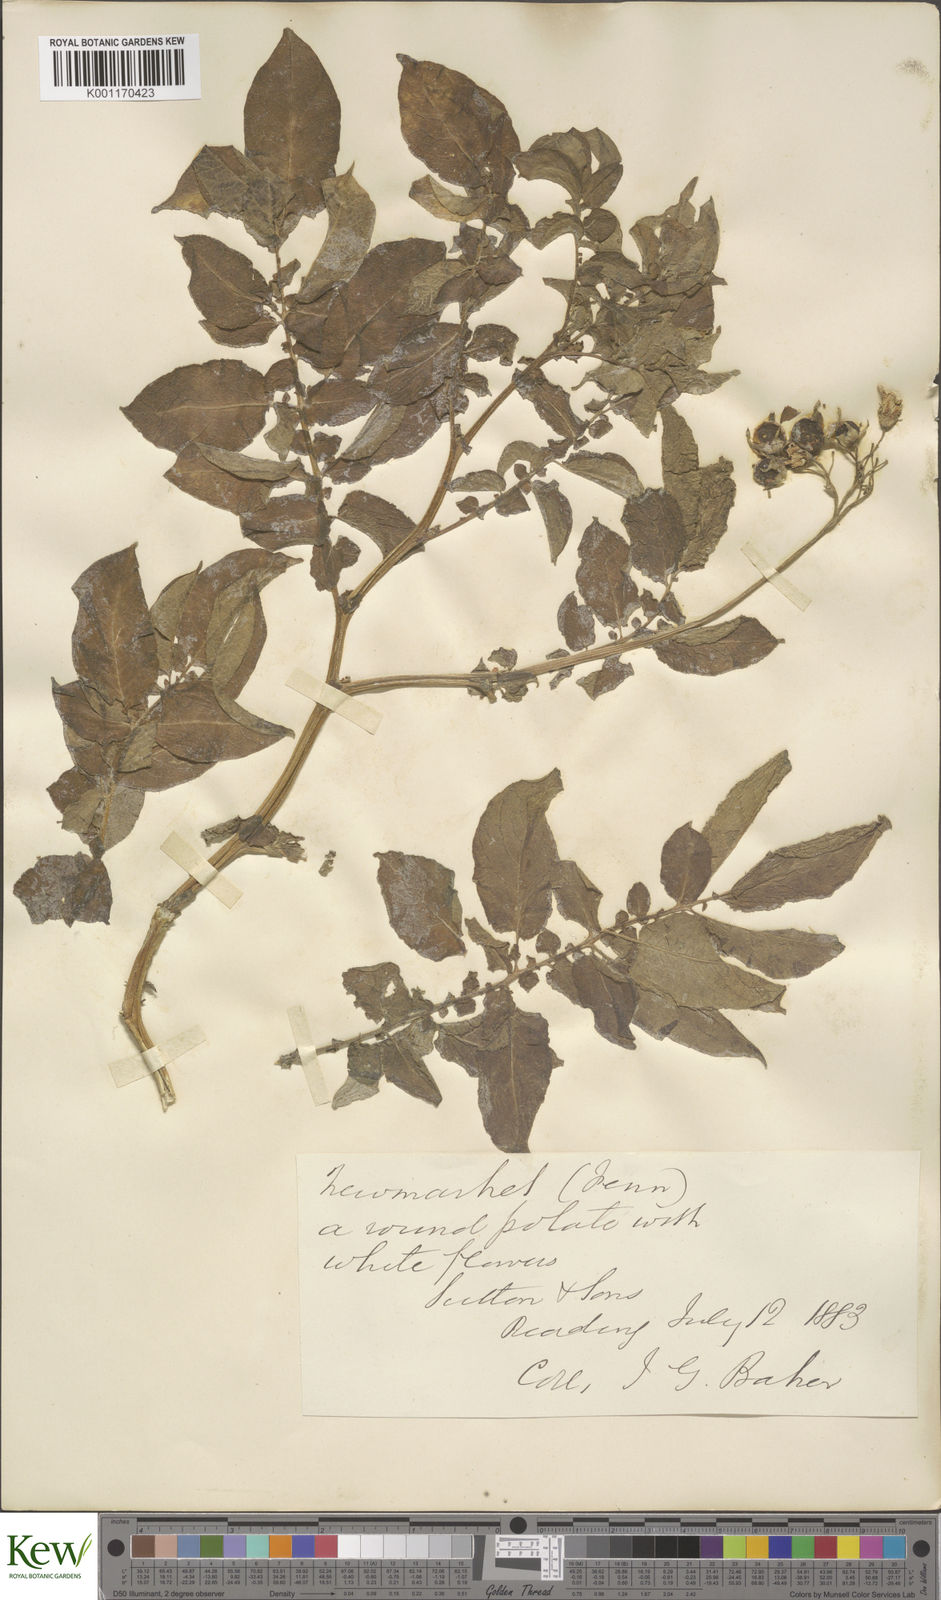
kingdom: Plantae
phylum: Tracheophyta
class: Magnoliopsida
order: Solanales
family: Solanaceae
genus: Solanum
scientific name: Solanum tuberosum
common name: Potato
